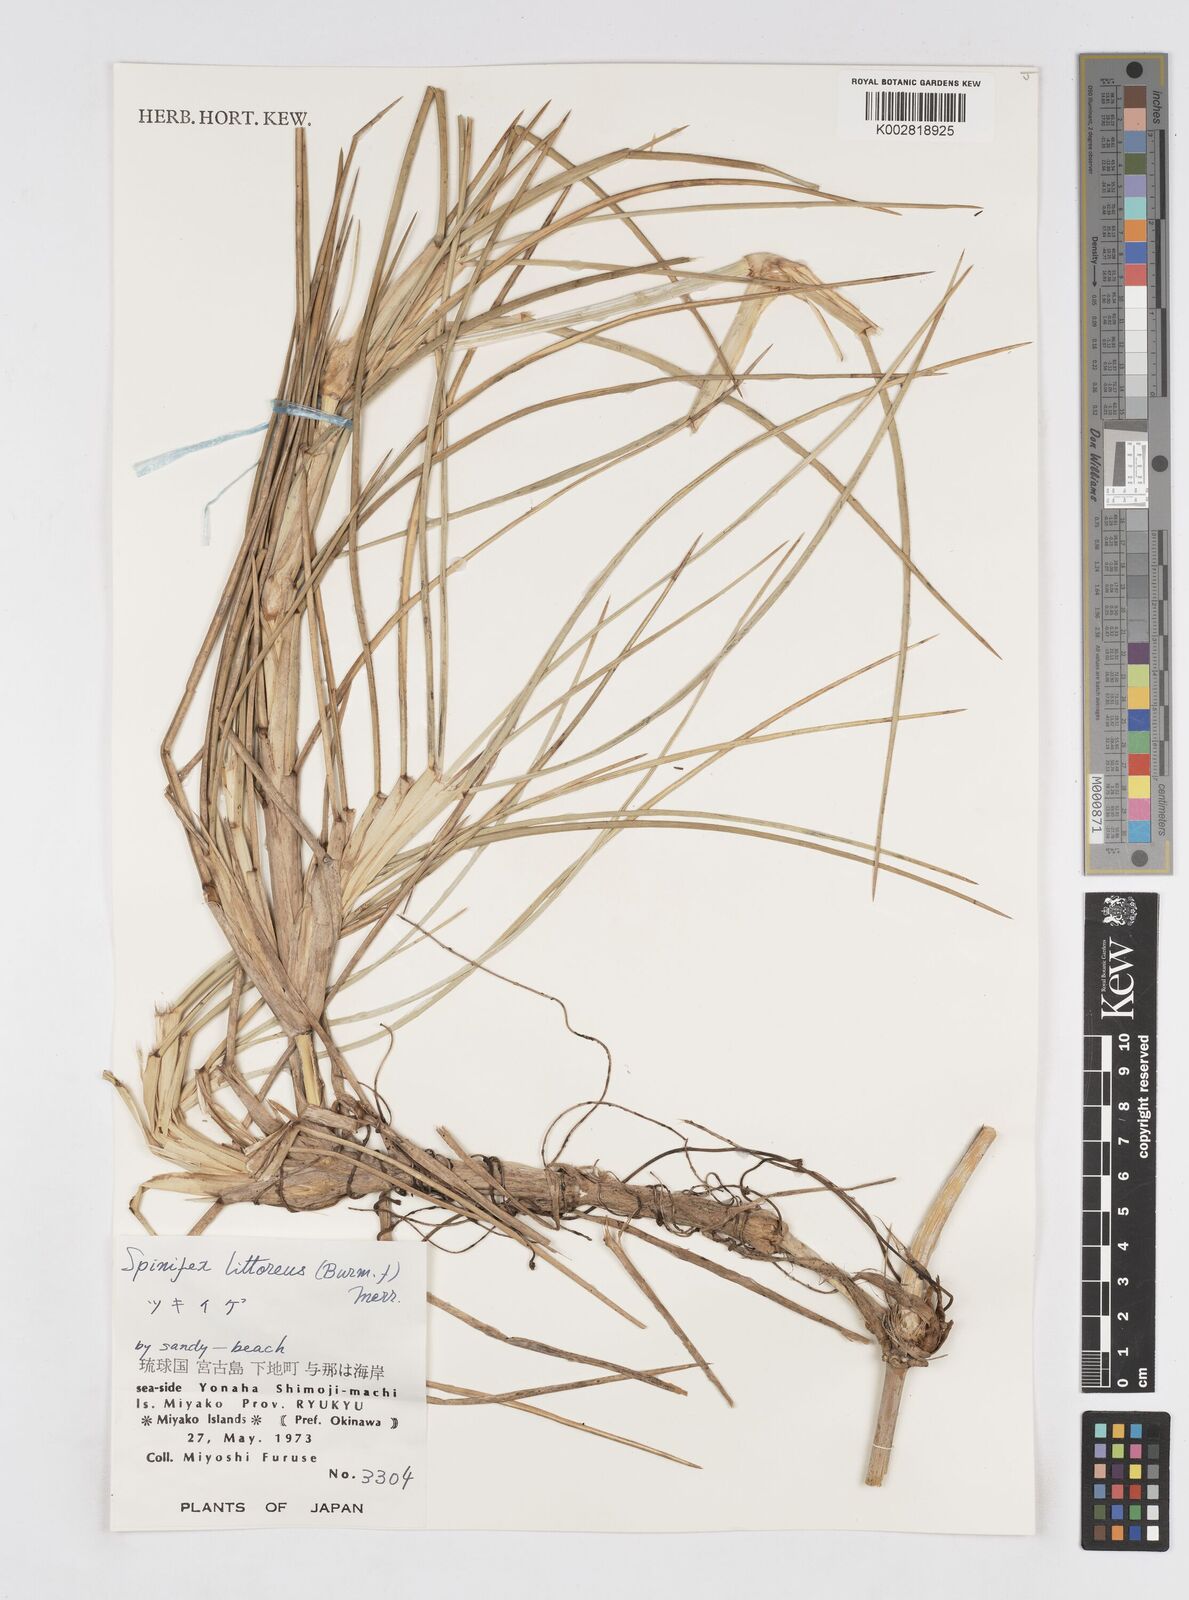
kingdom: Plantae
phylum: Tracheophyta
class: Liliopsida
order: Poales
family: Poaceae
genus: Spinifex
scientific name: Spinifex littoreus
